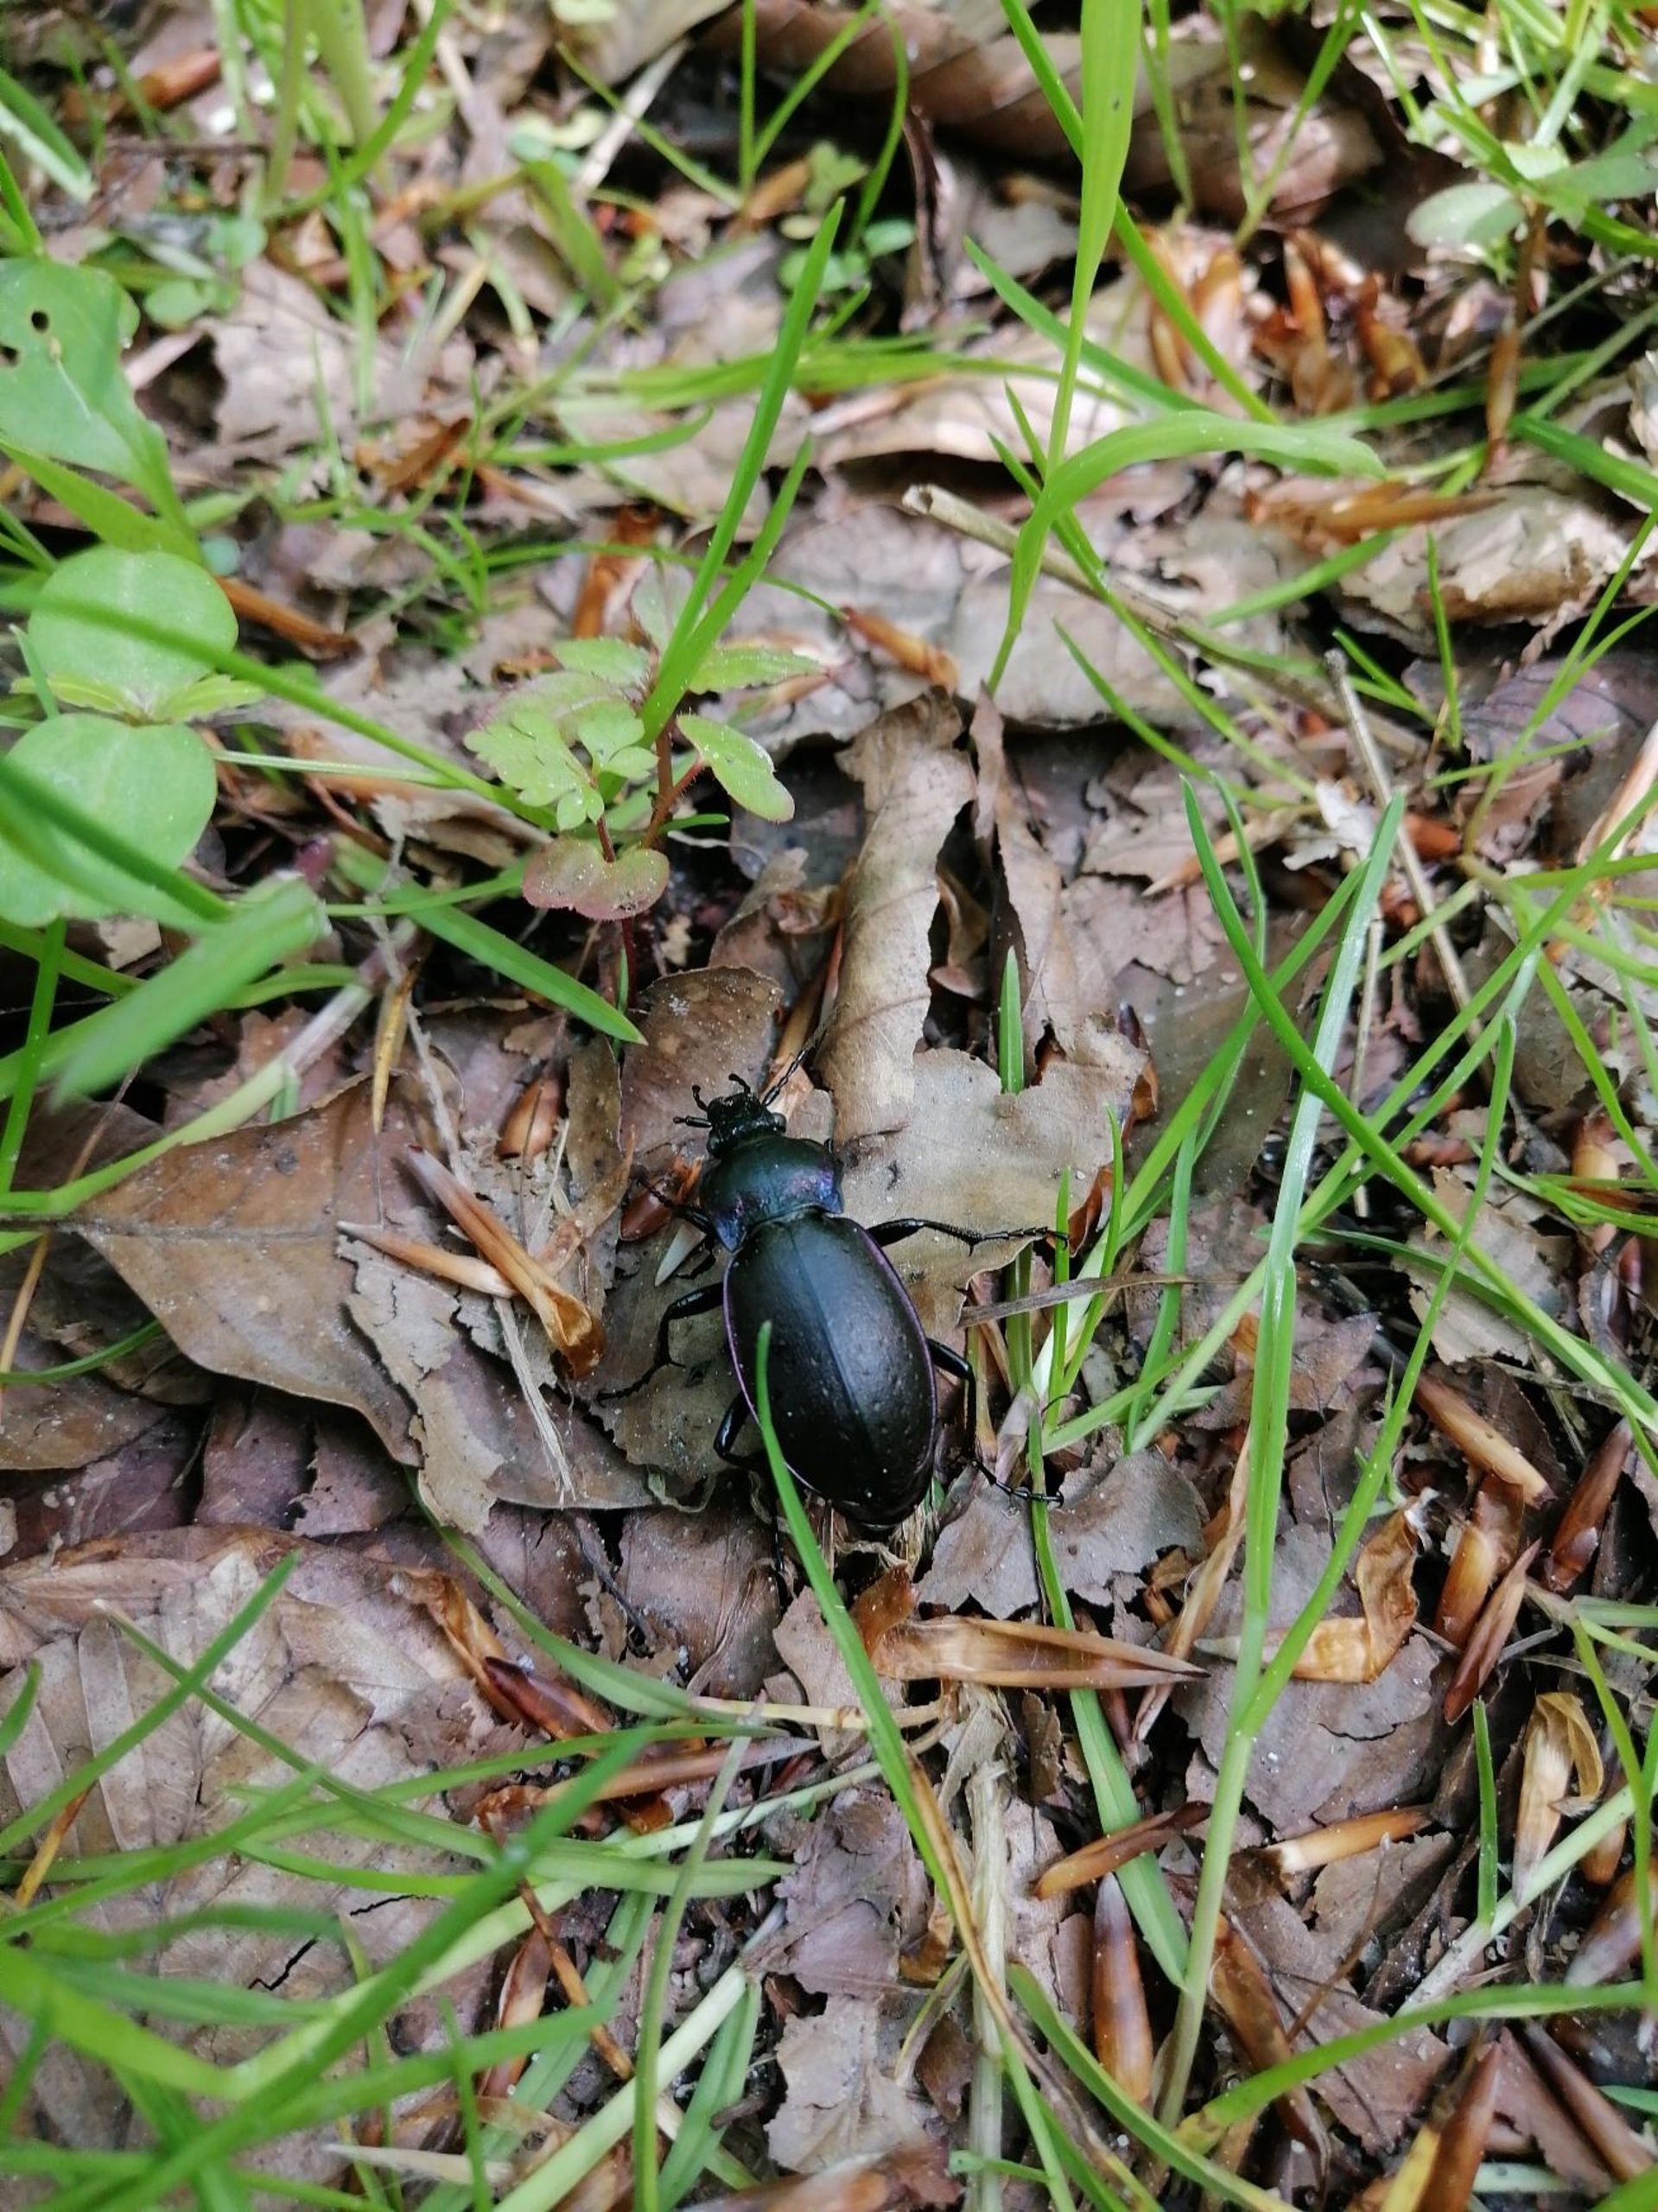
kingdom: Animalia
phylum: Arthropoda
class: Insecta
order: Coleoptera
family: Carabidae
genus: Carabus
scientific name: Carabus nemoralis
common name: Kratløber
